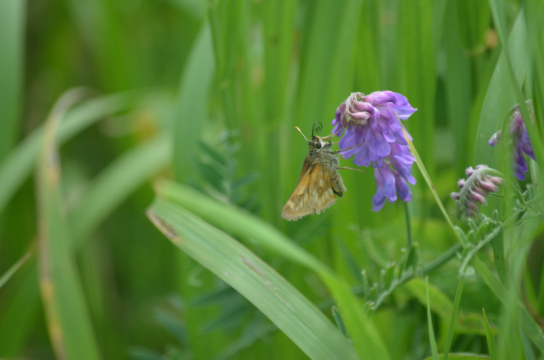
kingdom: Animalia
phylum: Arthropoda
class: Insecta
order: Lepidoptera
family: Hesperiidae
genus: Polites
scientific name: Polites
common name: Long Dash Skipper
